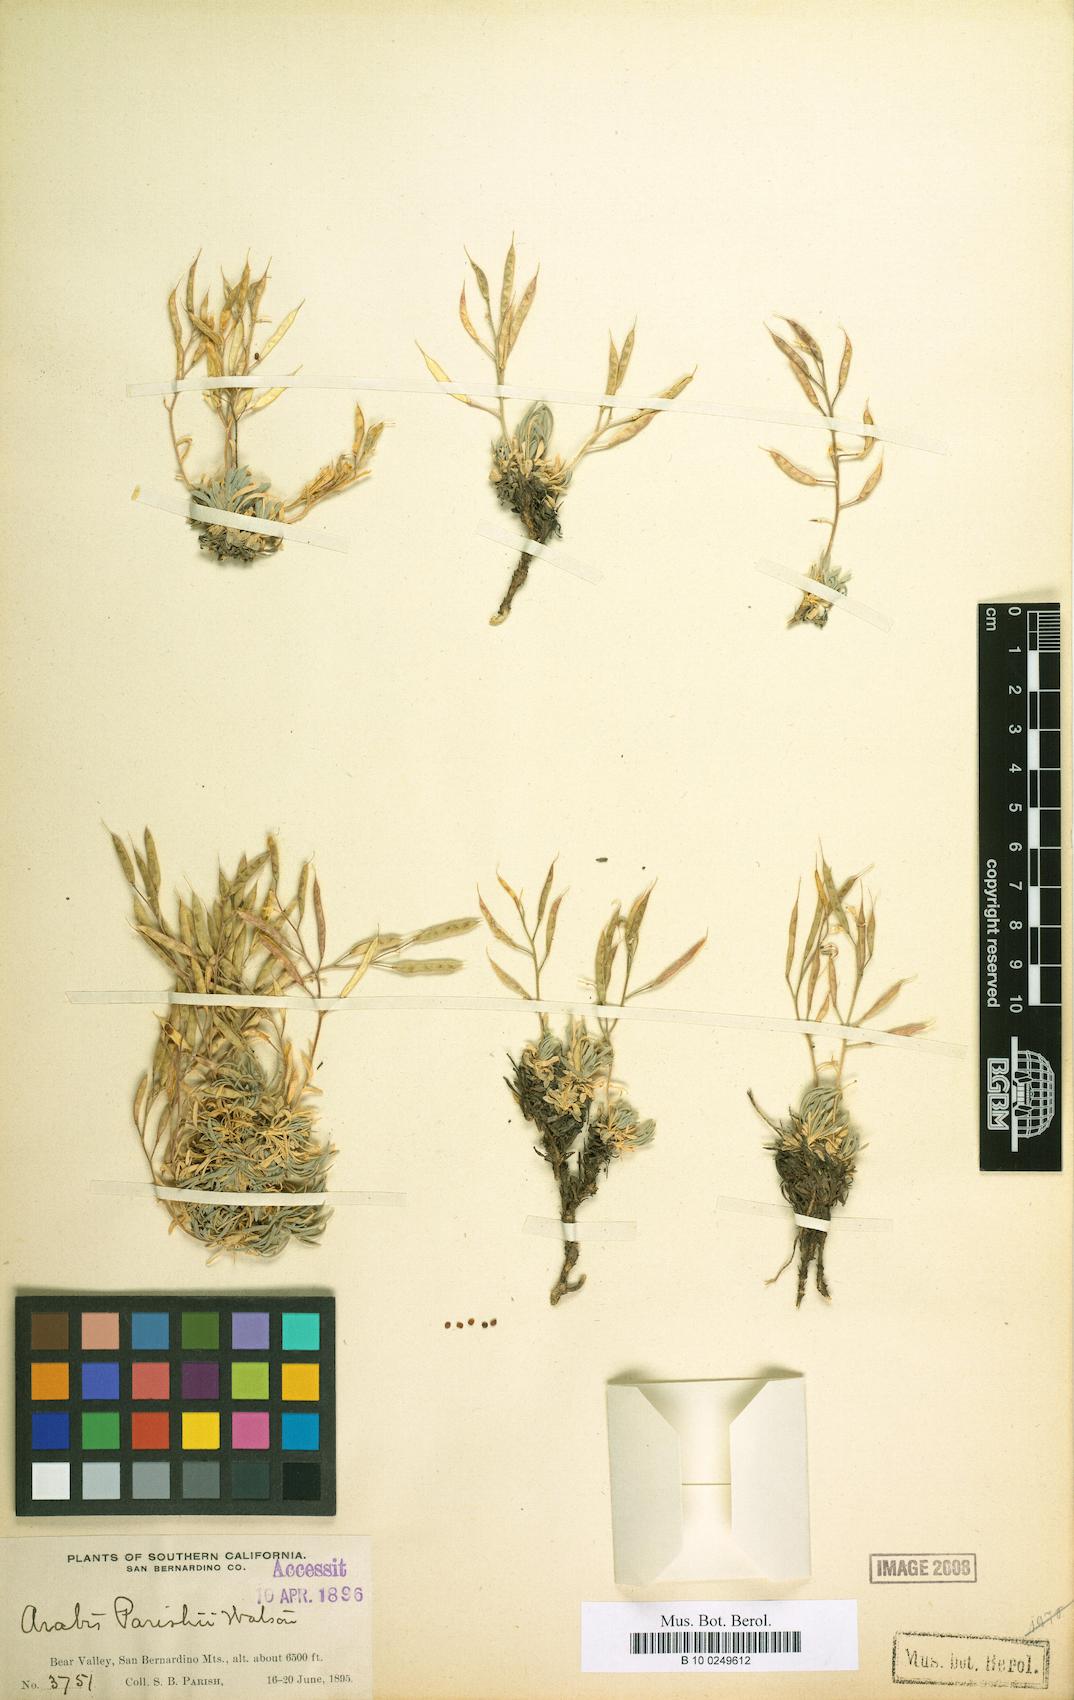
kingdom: Plantae
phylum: Tracheophyta
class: Magnoliopsida
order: Brassicales
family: Brassicaceae
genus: Boechera
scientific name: Boechera parishii
